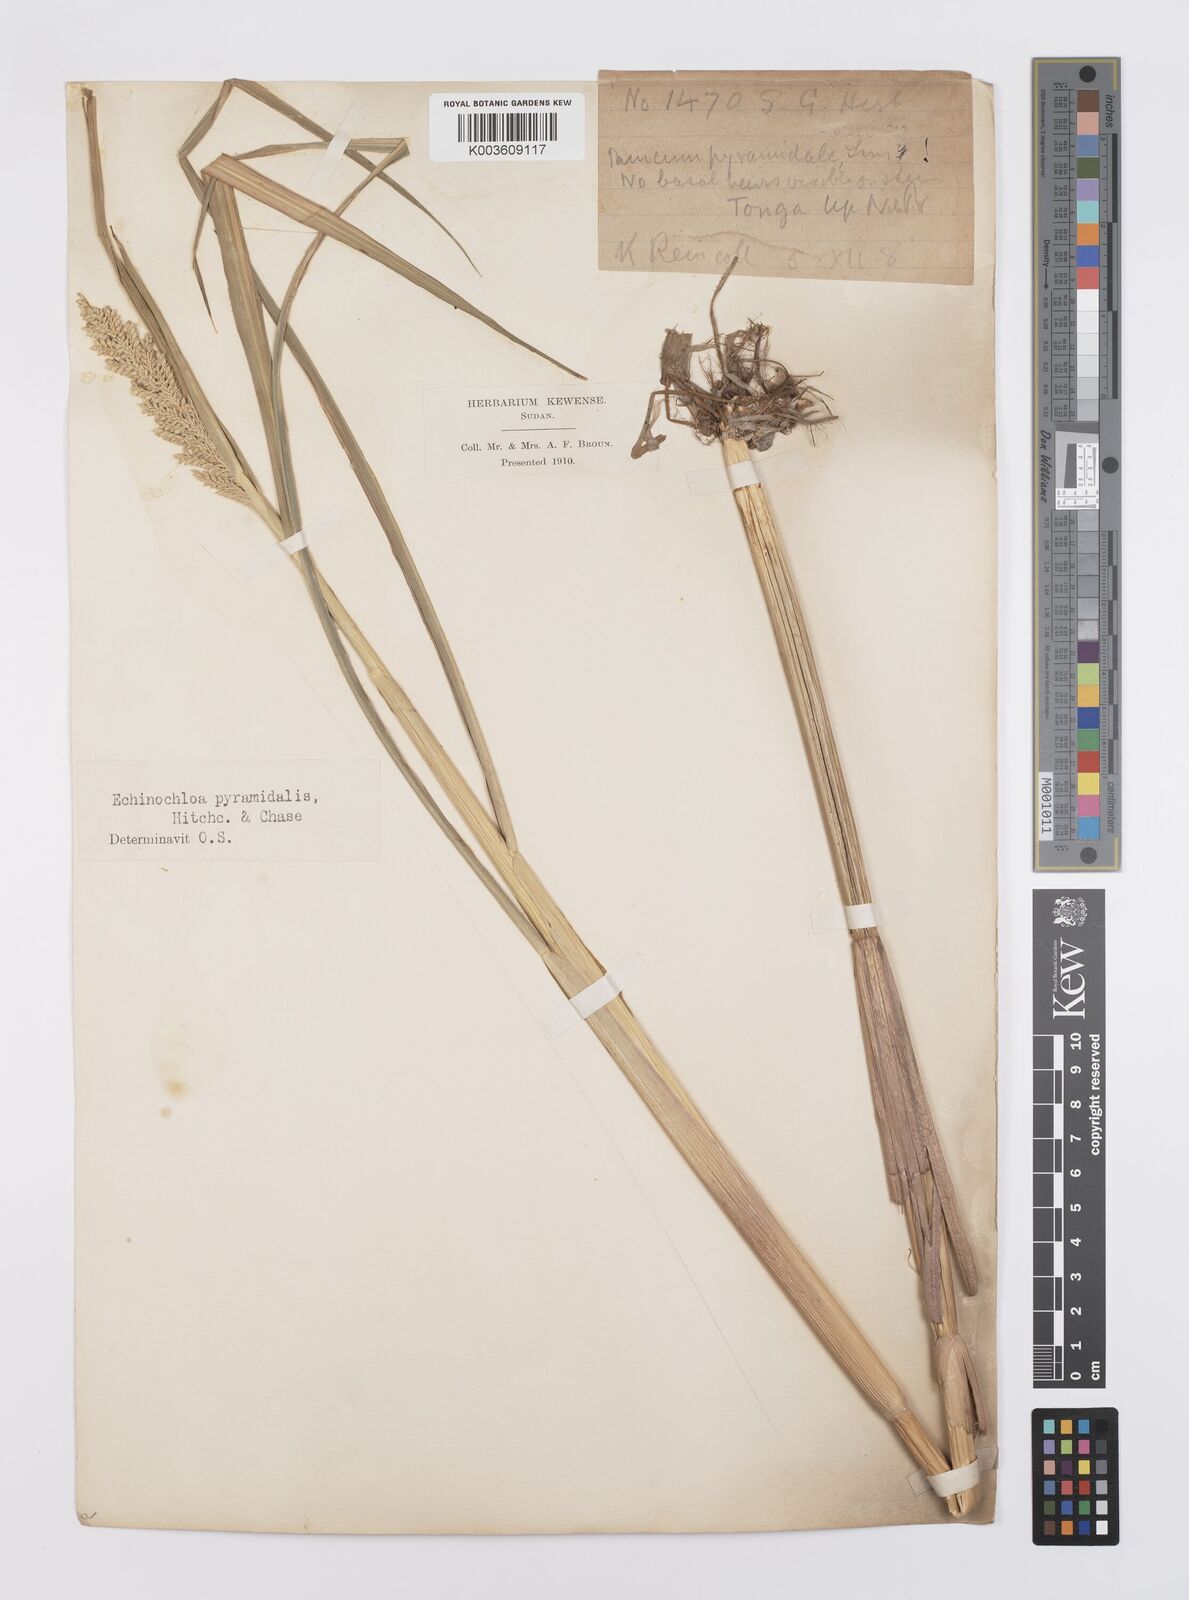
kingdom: Plantae
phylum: Tracheophyta
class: Liliopsida
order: Poales
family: Poaceae
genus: Echinochloa
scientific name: Echinochloa pyramidalis
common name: Antelope grass
